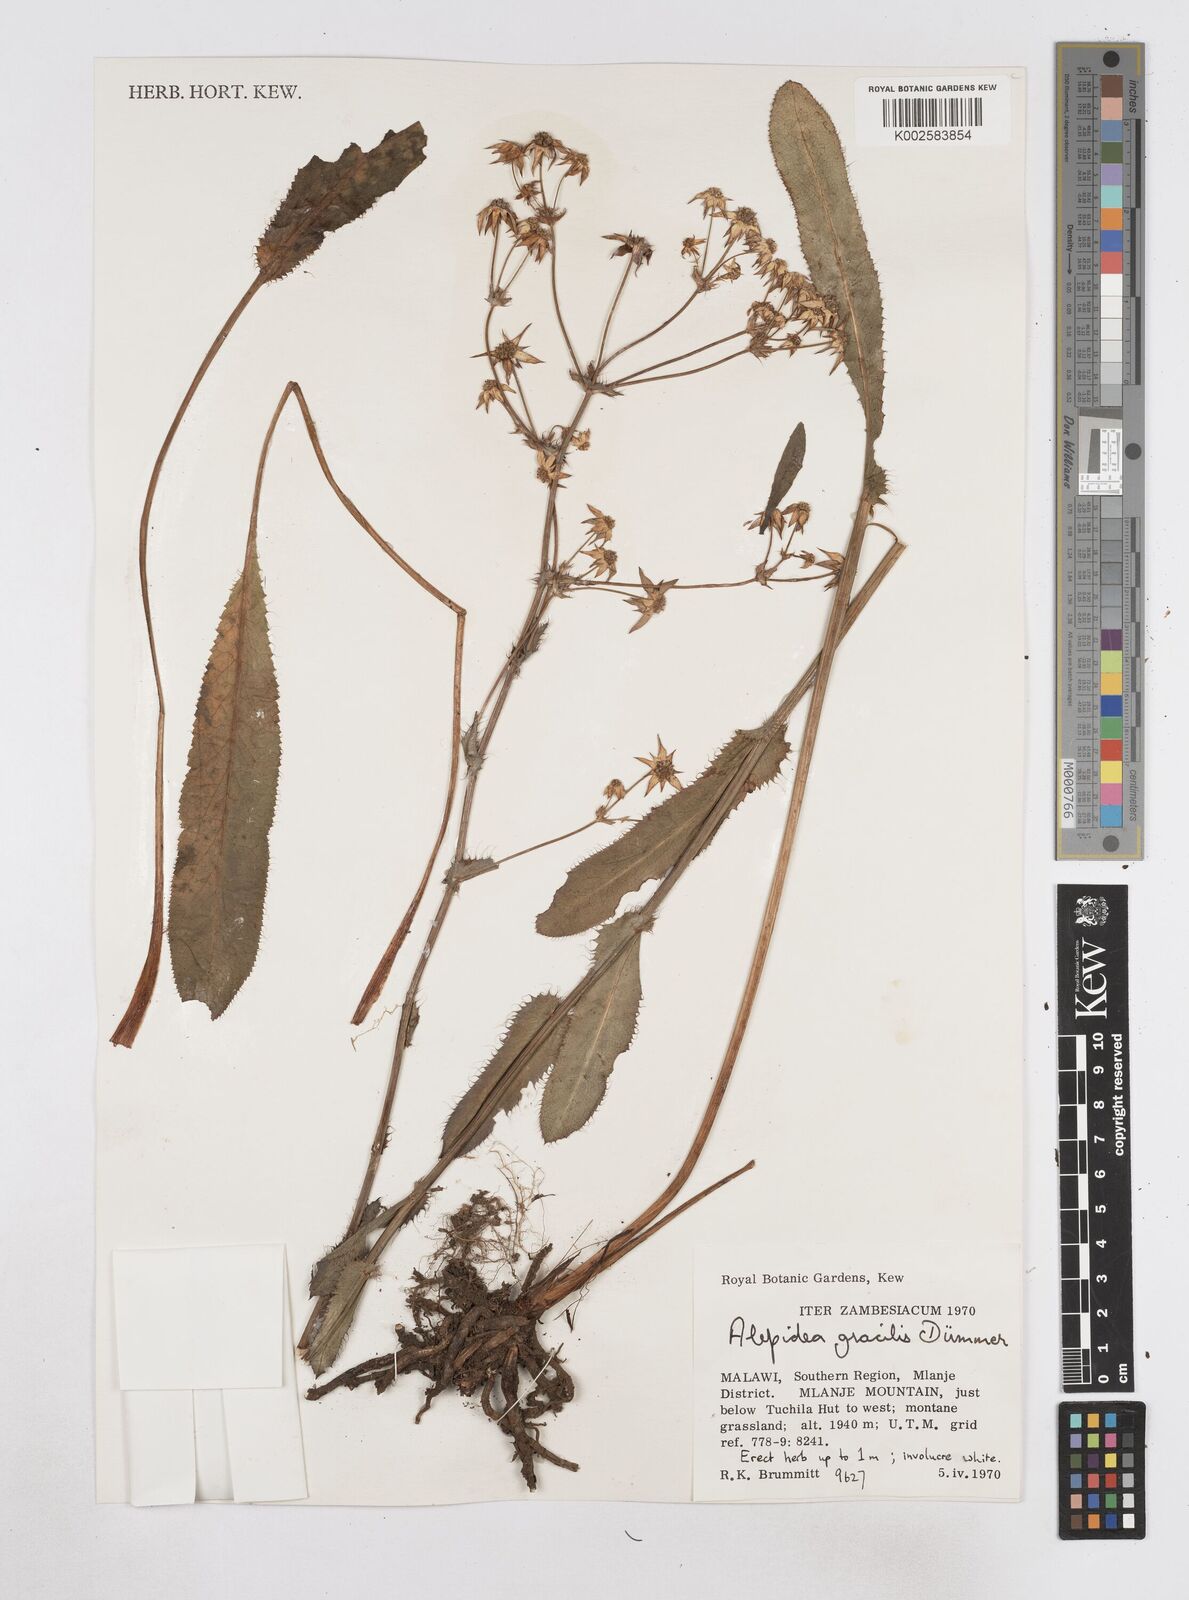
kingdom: Plantae
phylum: Tracheophyta
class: Magnoliopsida
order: Apiales
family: Apiaceae
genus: Alepidea
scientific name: Alepidea peduncularis
